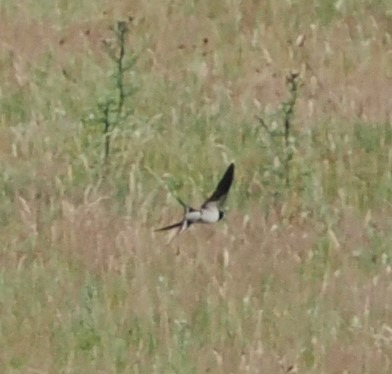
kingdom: Animalia
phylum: Chordata
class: Aves
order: Passeriformes
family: Hirundinidae
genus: Hirundo
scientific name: Hirundo rustica
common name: Landsvale
